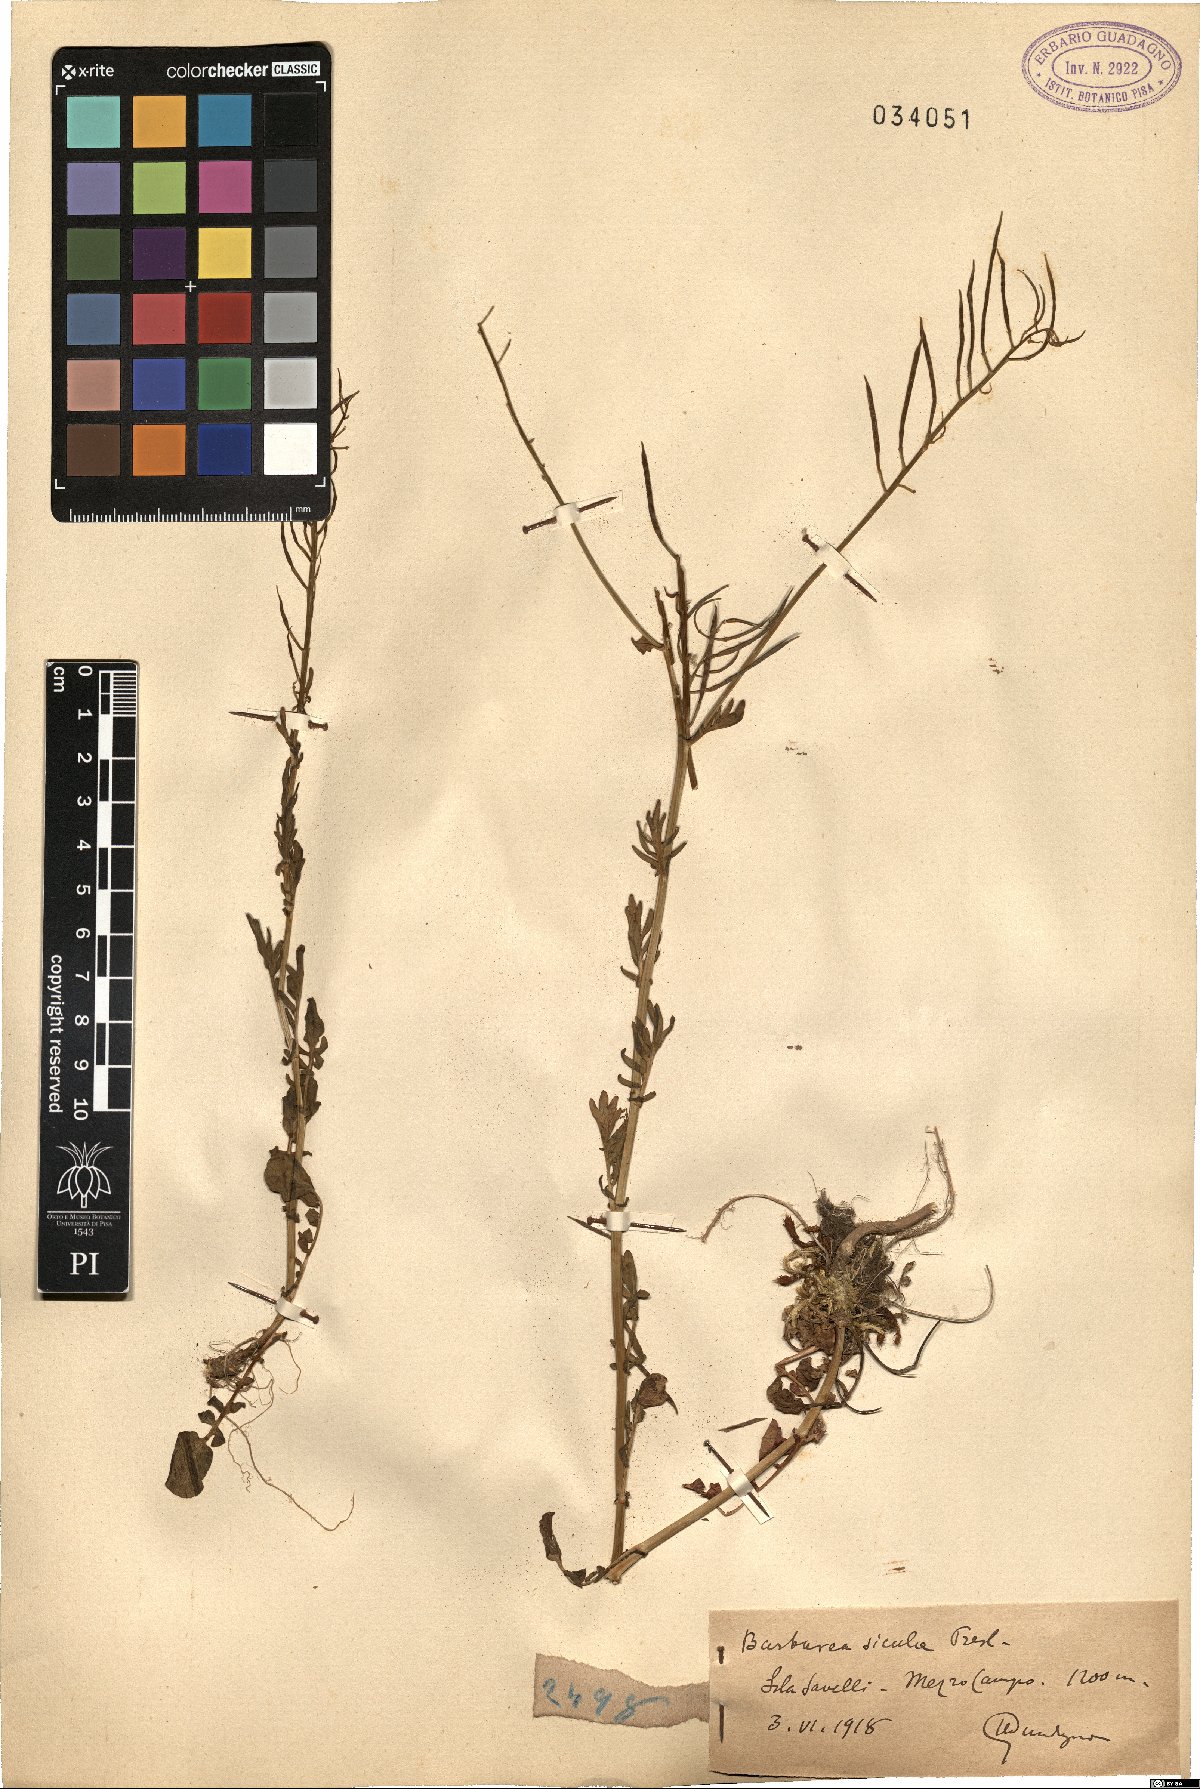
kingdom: Plantae
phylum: Tracheophyta
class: Magnoliopsida
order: Brassicales
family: Brassicaceae
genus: Barbarea
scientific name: Barbarea sicula
